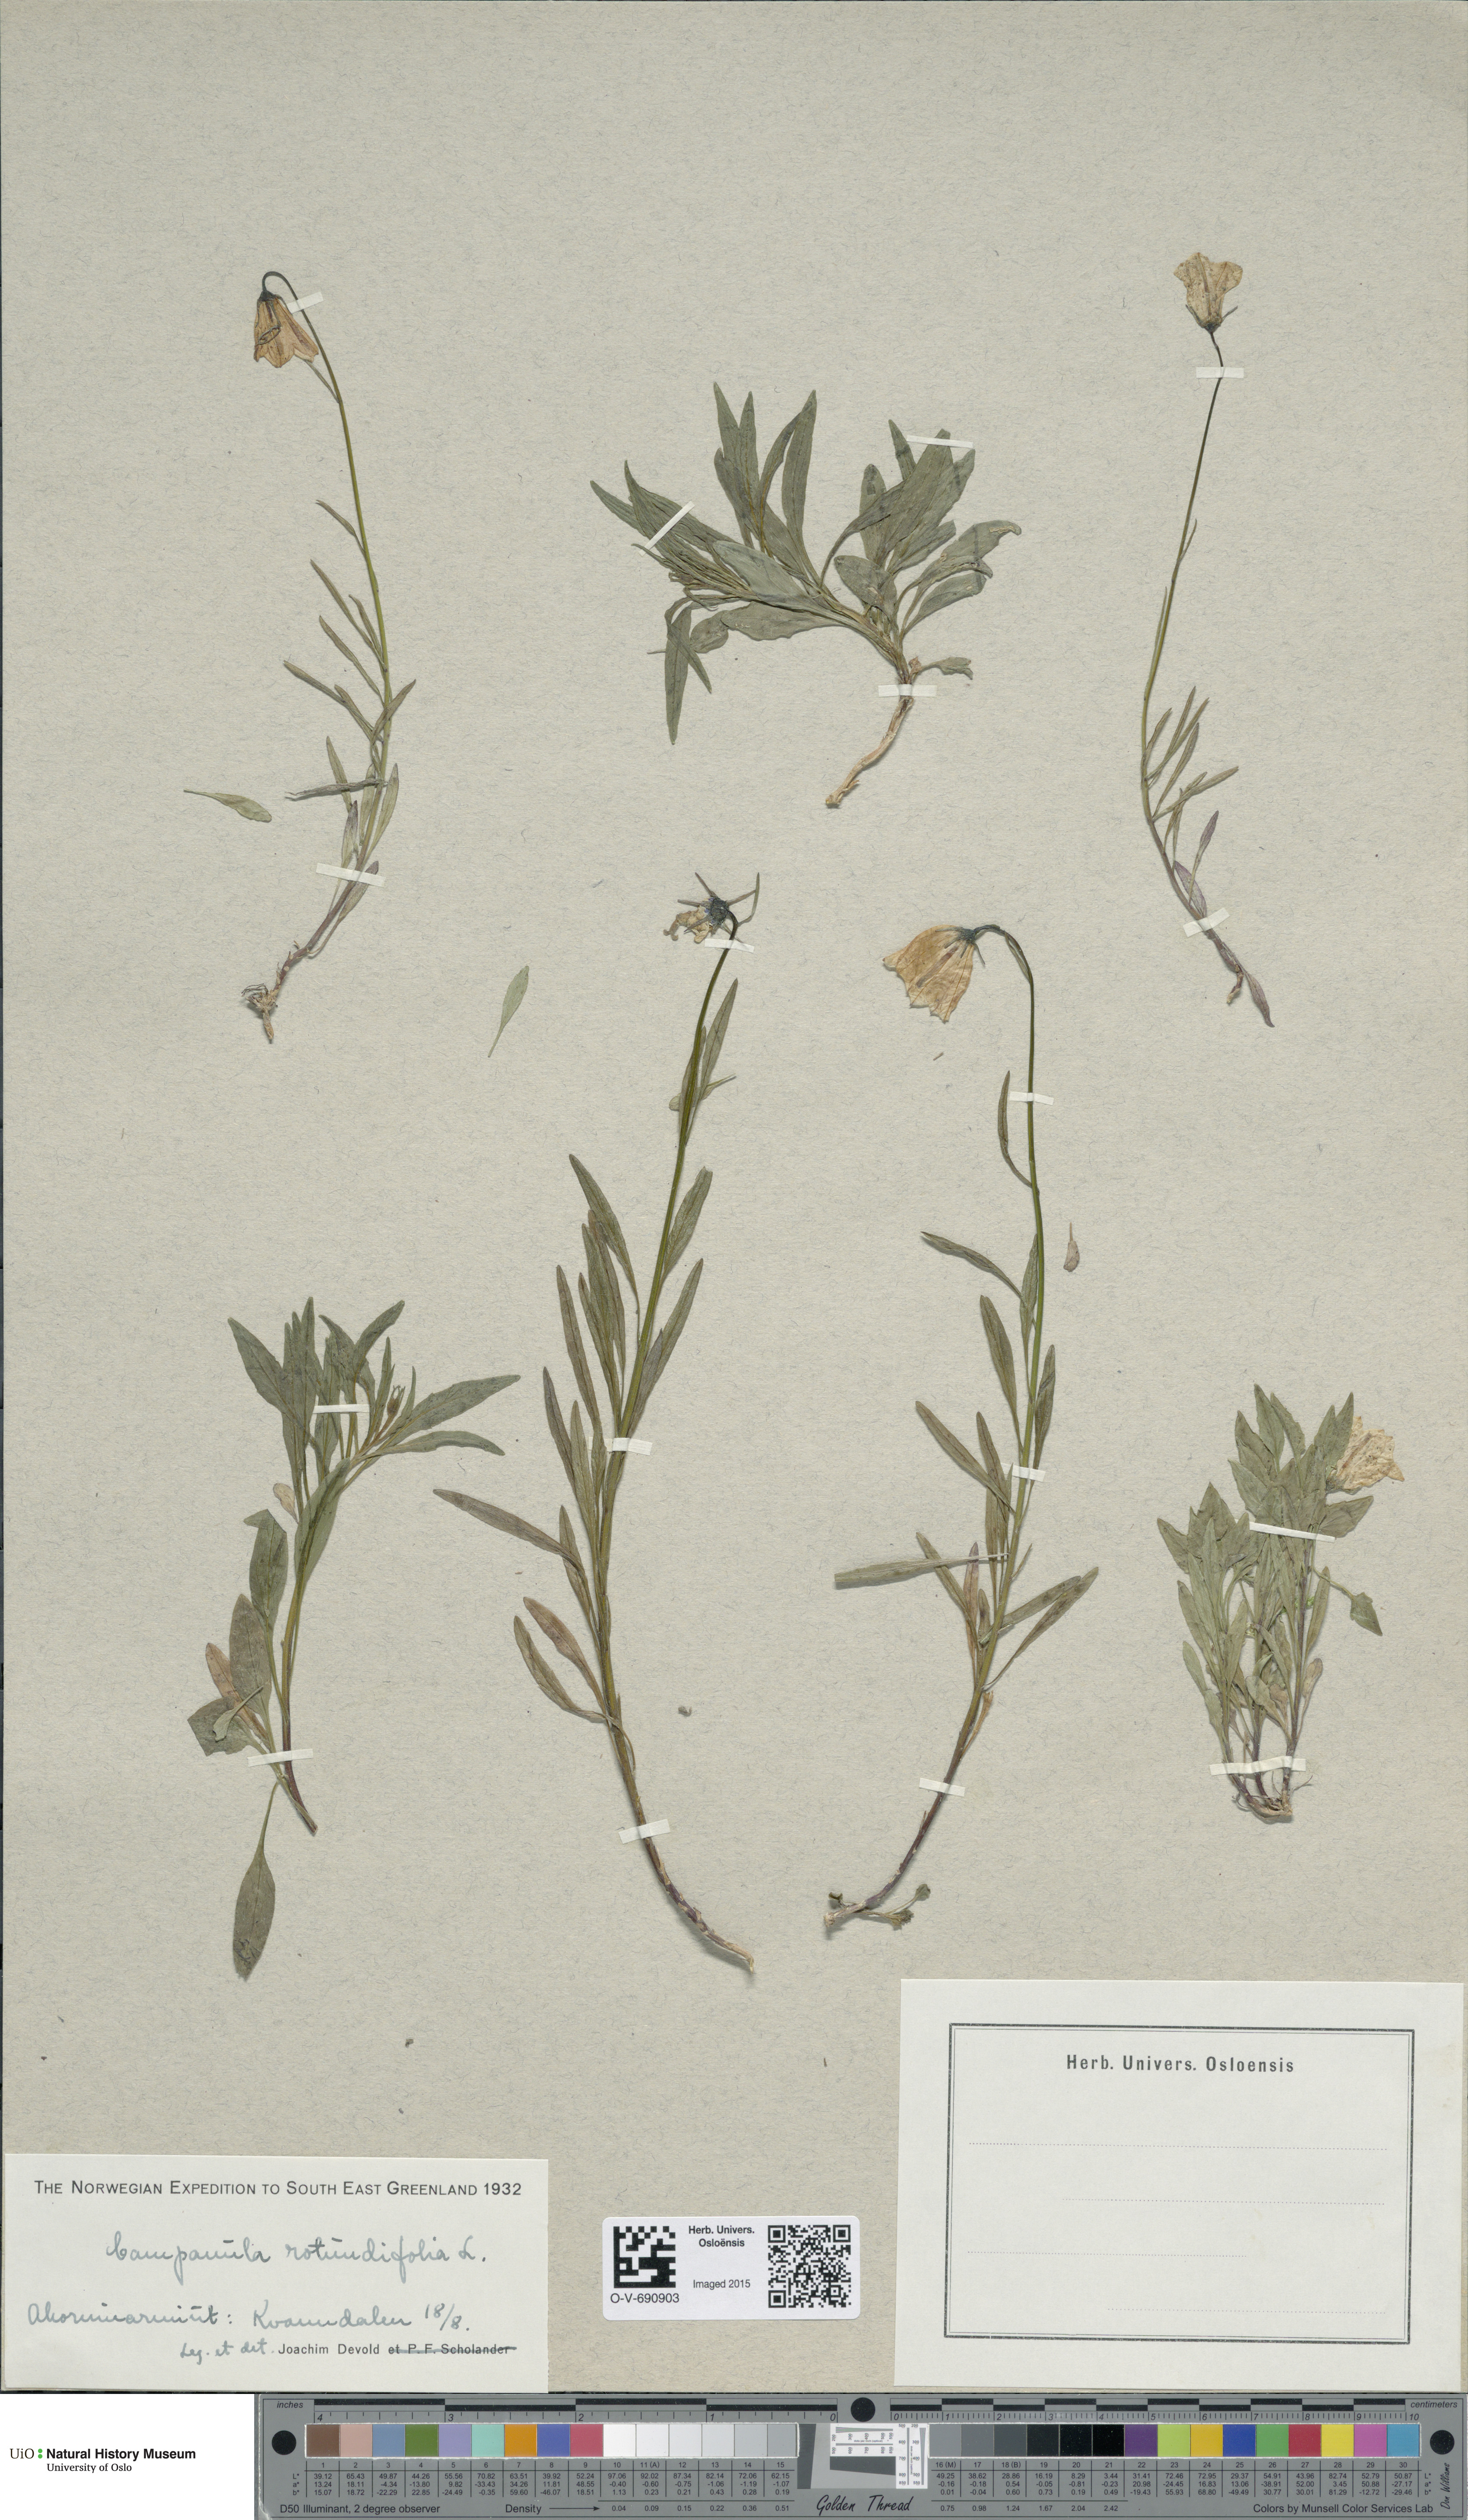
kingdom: Plantae
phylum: Tracheophyta
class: Magnoliopsida
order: Asterales
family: Campanulaceae
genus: Campanula
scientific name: Campanula rotundifolia
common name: Harebell
